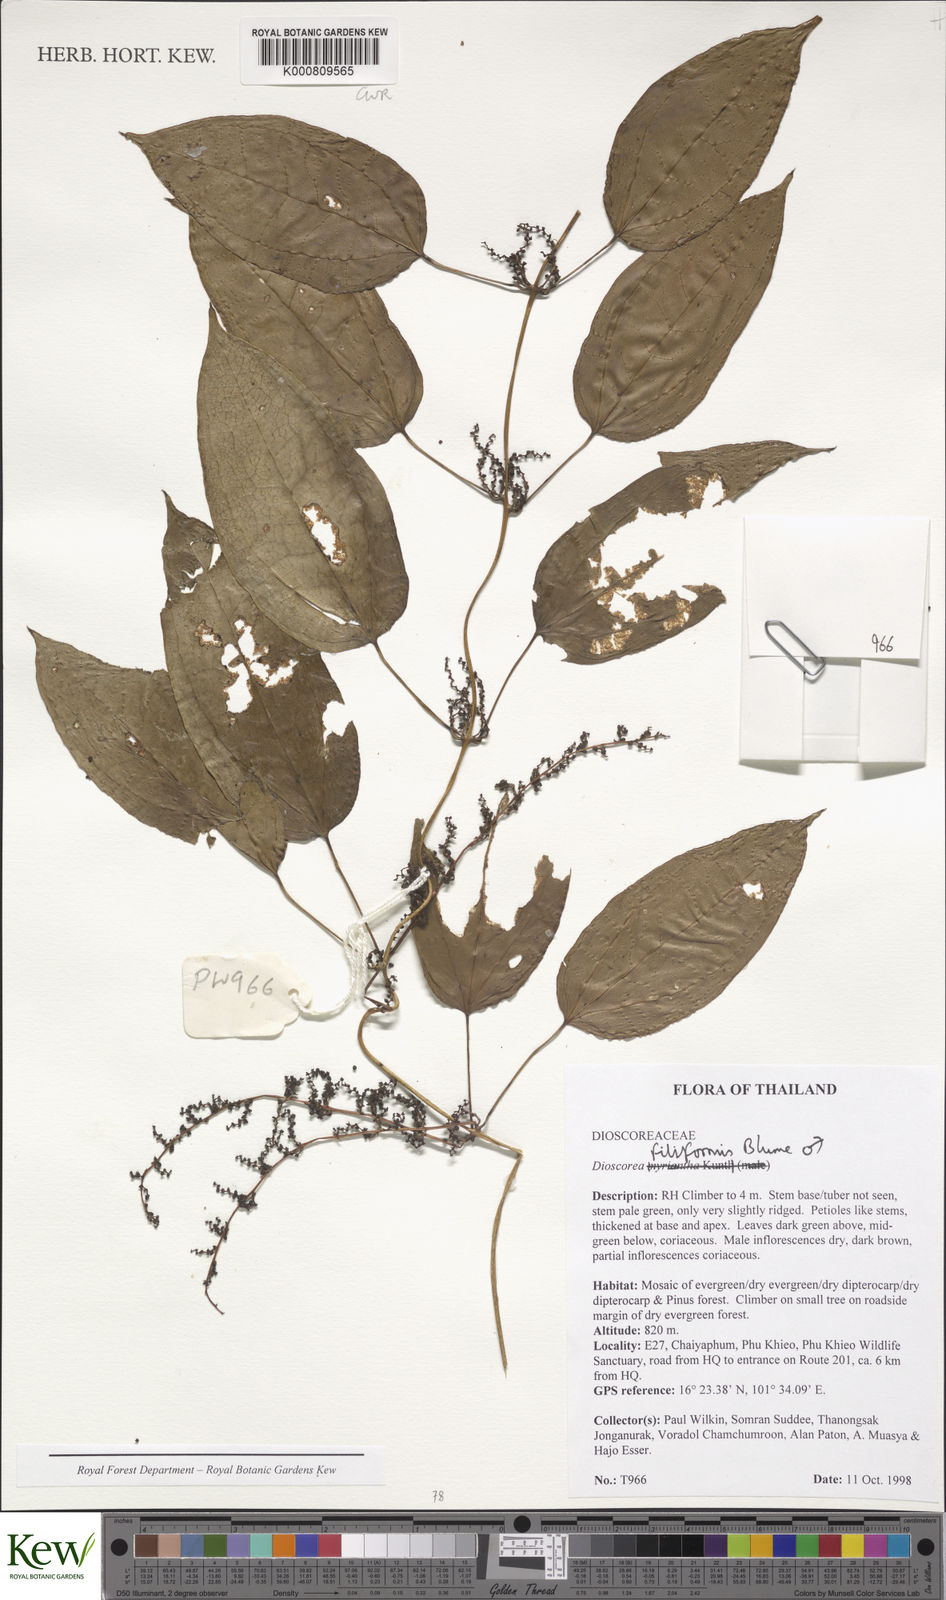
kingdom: Plantae
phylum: Tracheophyta
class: Liliopsida
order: Dioscoreales
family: Dioscoreaceae
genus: Dioscorea
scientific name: Dioscorea filiformis
